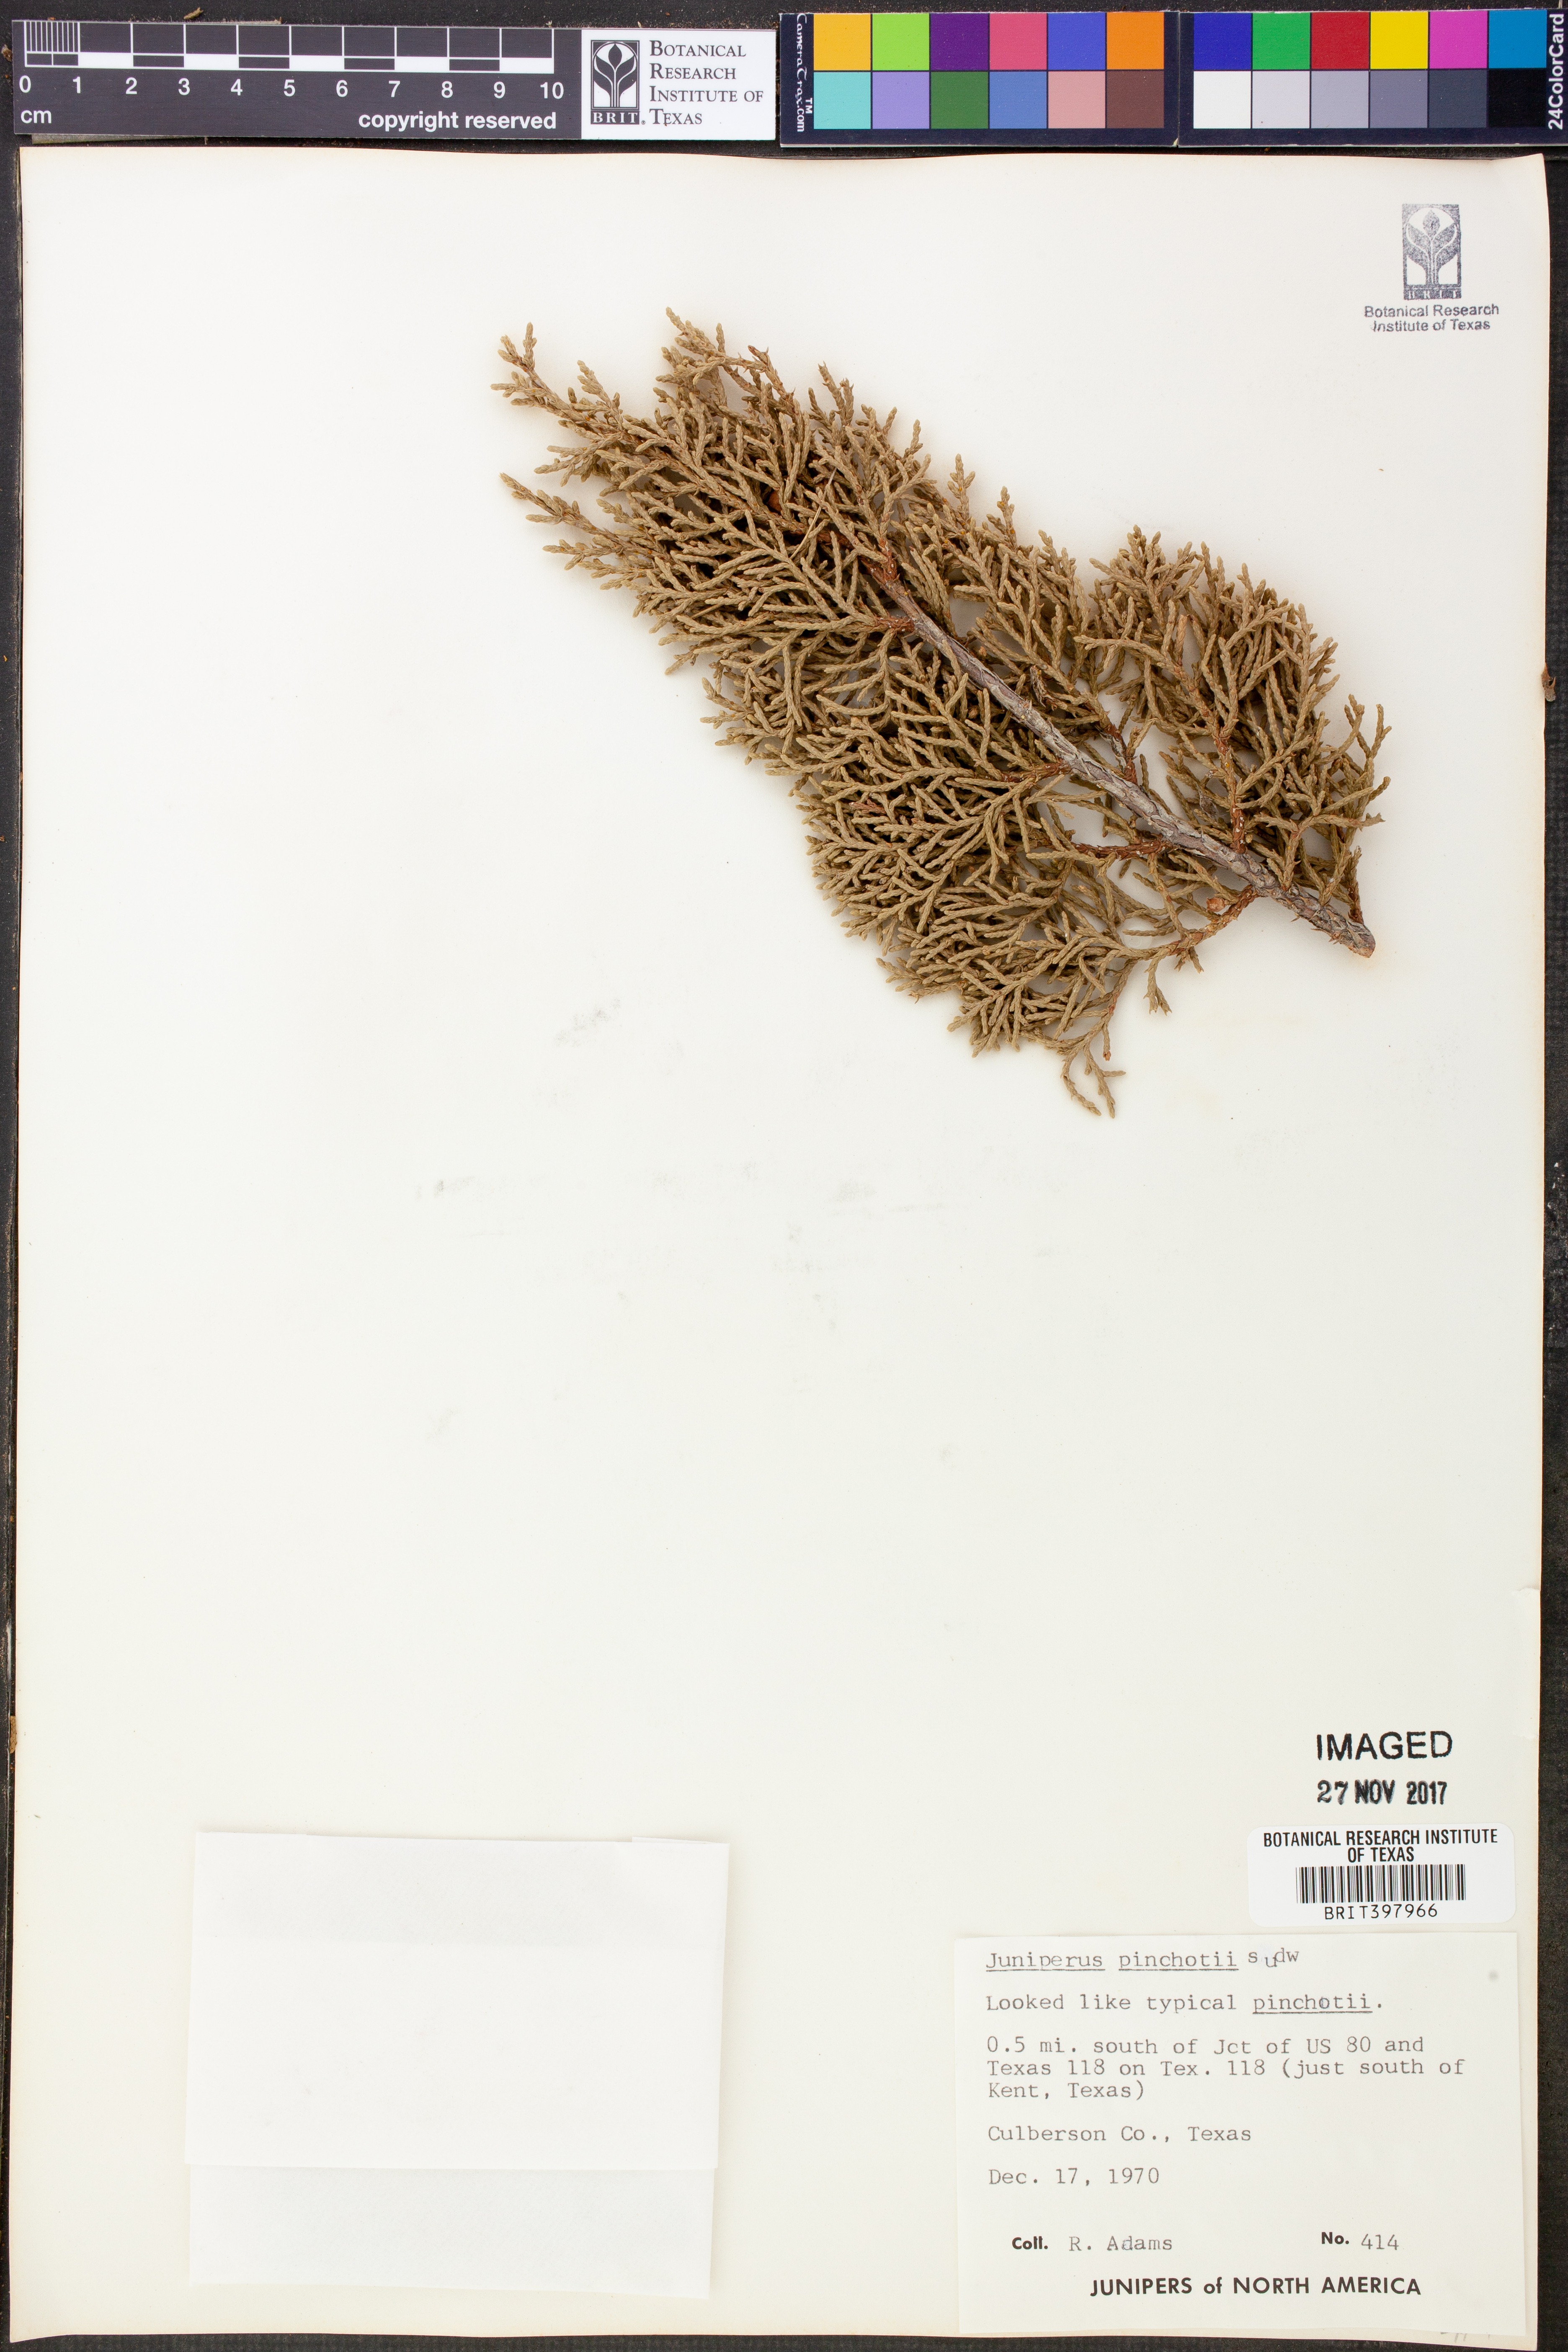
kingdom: Plantae
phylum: Tracheophyta
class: Pinopsida
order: Pinales
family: Cupressaceae
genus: Juniperus
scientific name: Juniperus pinchotii
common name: Pinchot juniper
